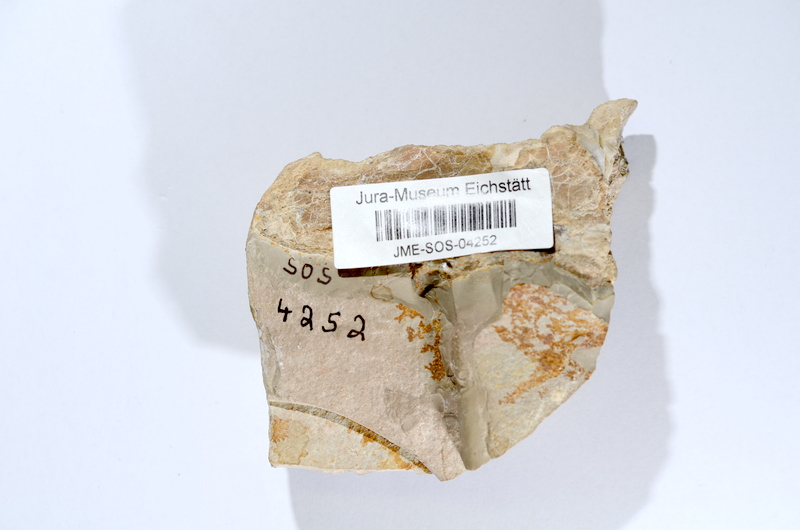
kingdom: Animalia
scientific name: Animalia
